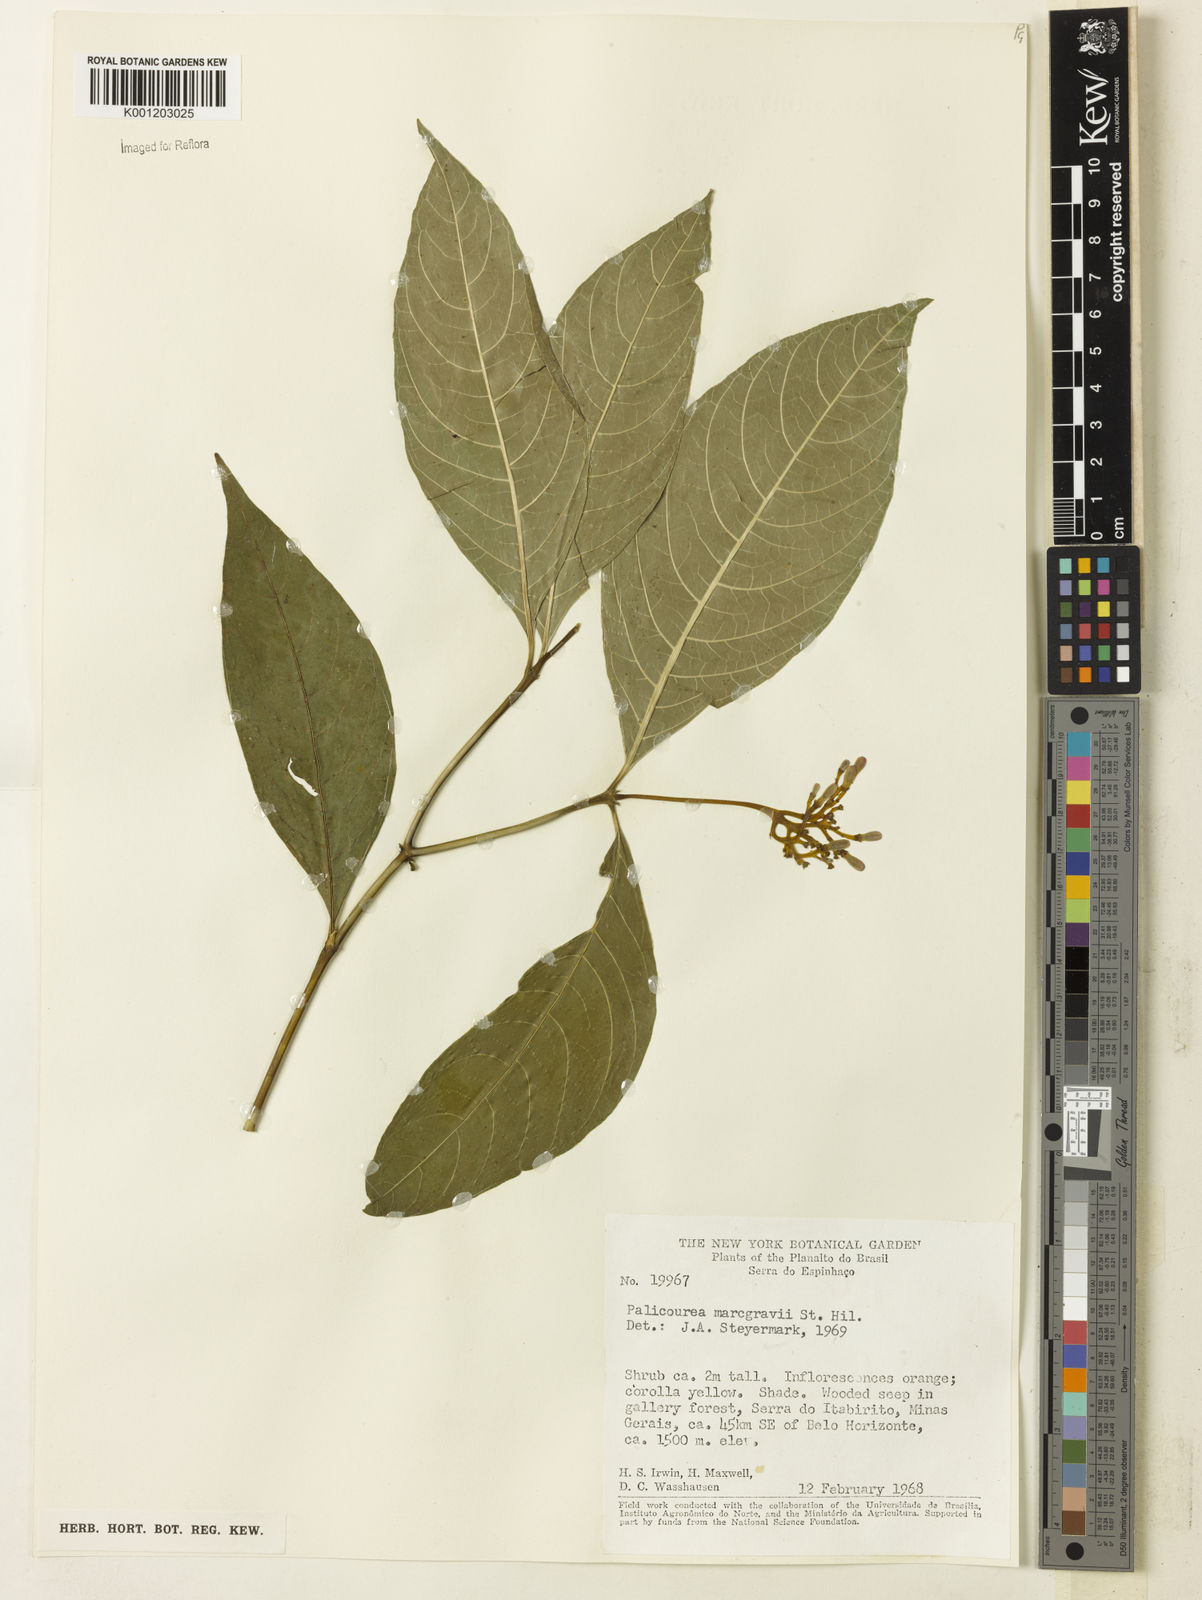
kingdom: Plantae
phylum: Tracheophyta
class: Magnoliopsida
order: Gentianales
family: Rubiaceae
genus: Palicourea
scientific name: Palicourea marcgravii
